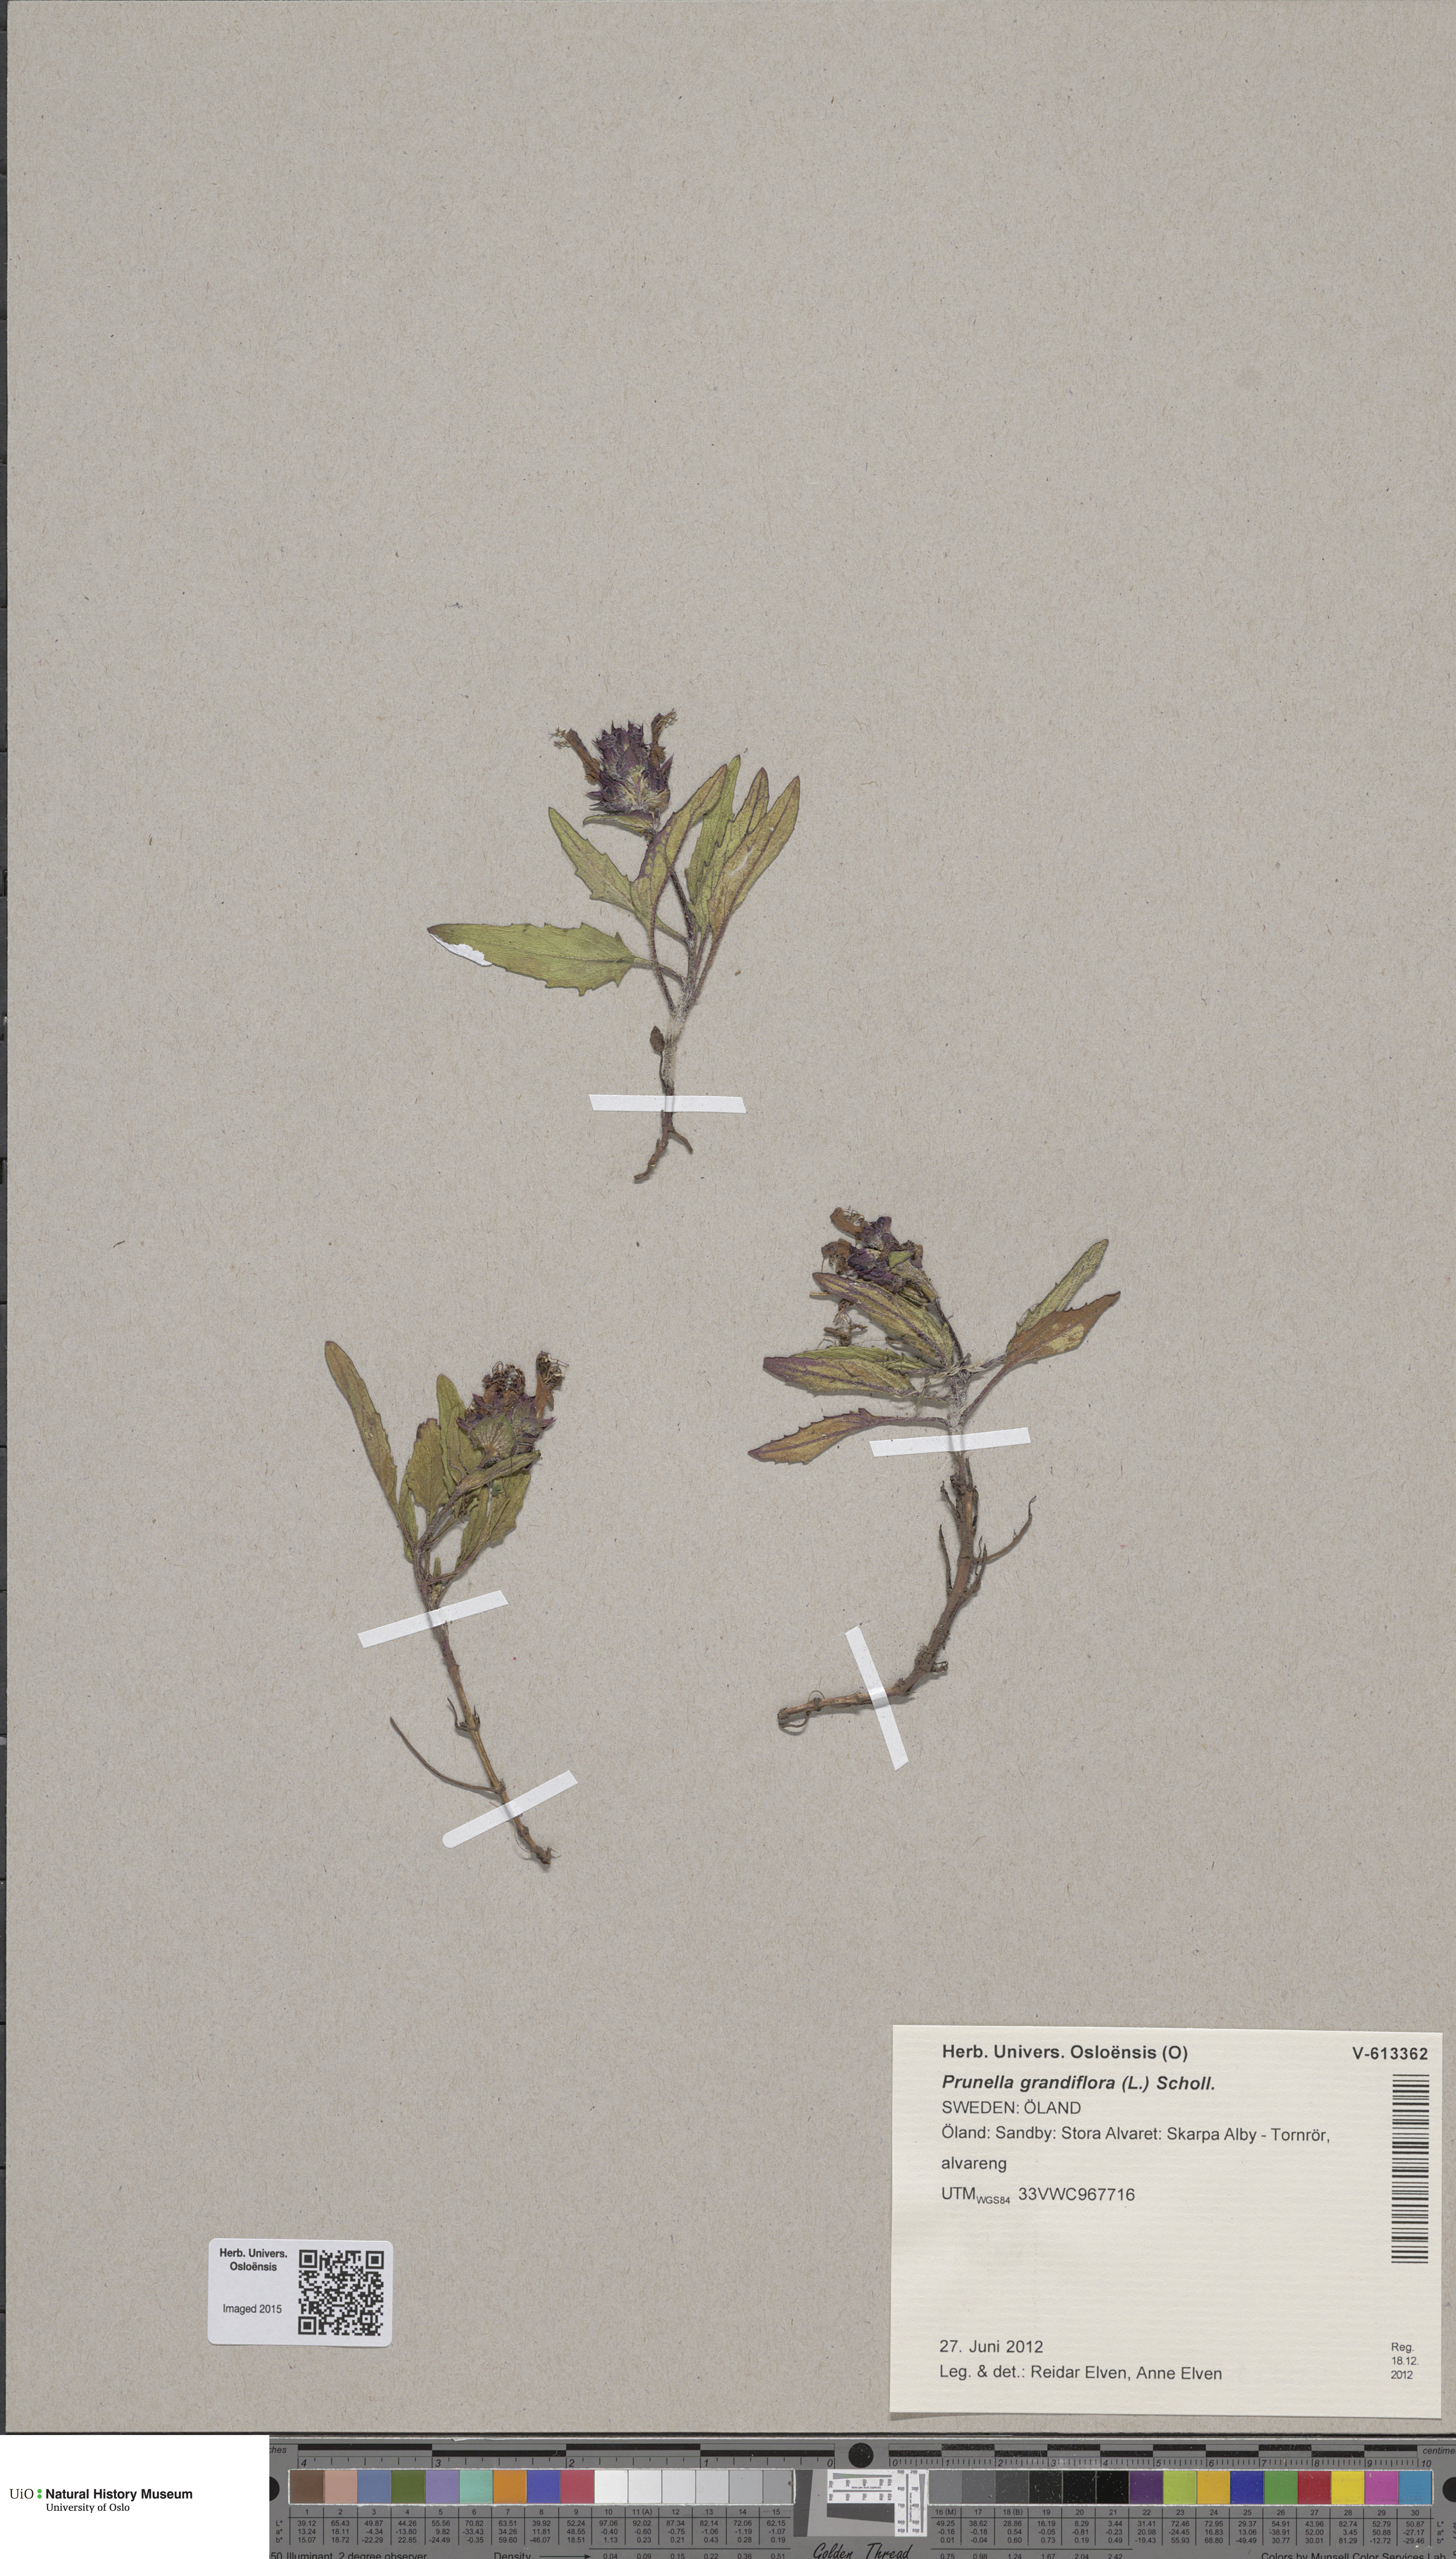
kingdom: Plantae
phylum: Tracheophyta
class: Magnoliopsida
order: Lamiales
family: Lamiaceae
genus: Prunella
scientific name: Prunella grandiflora
